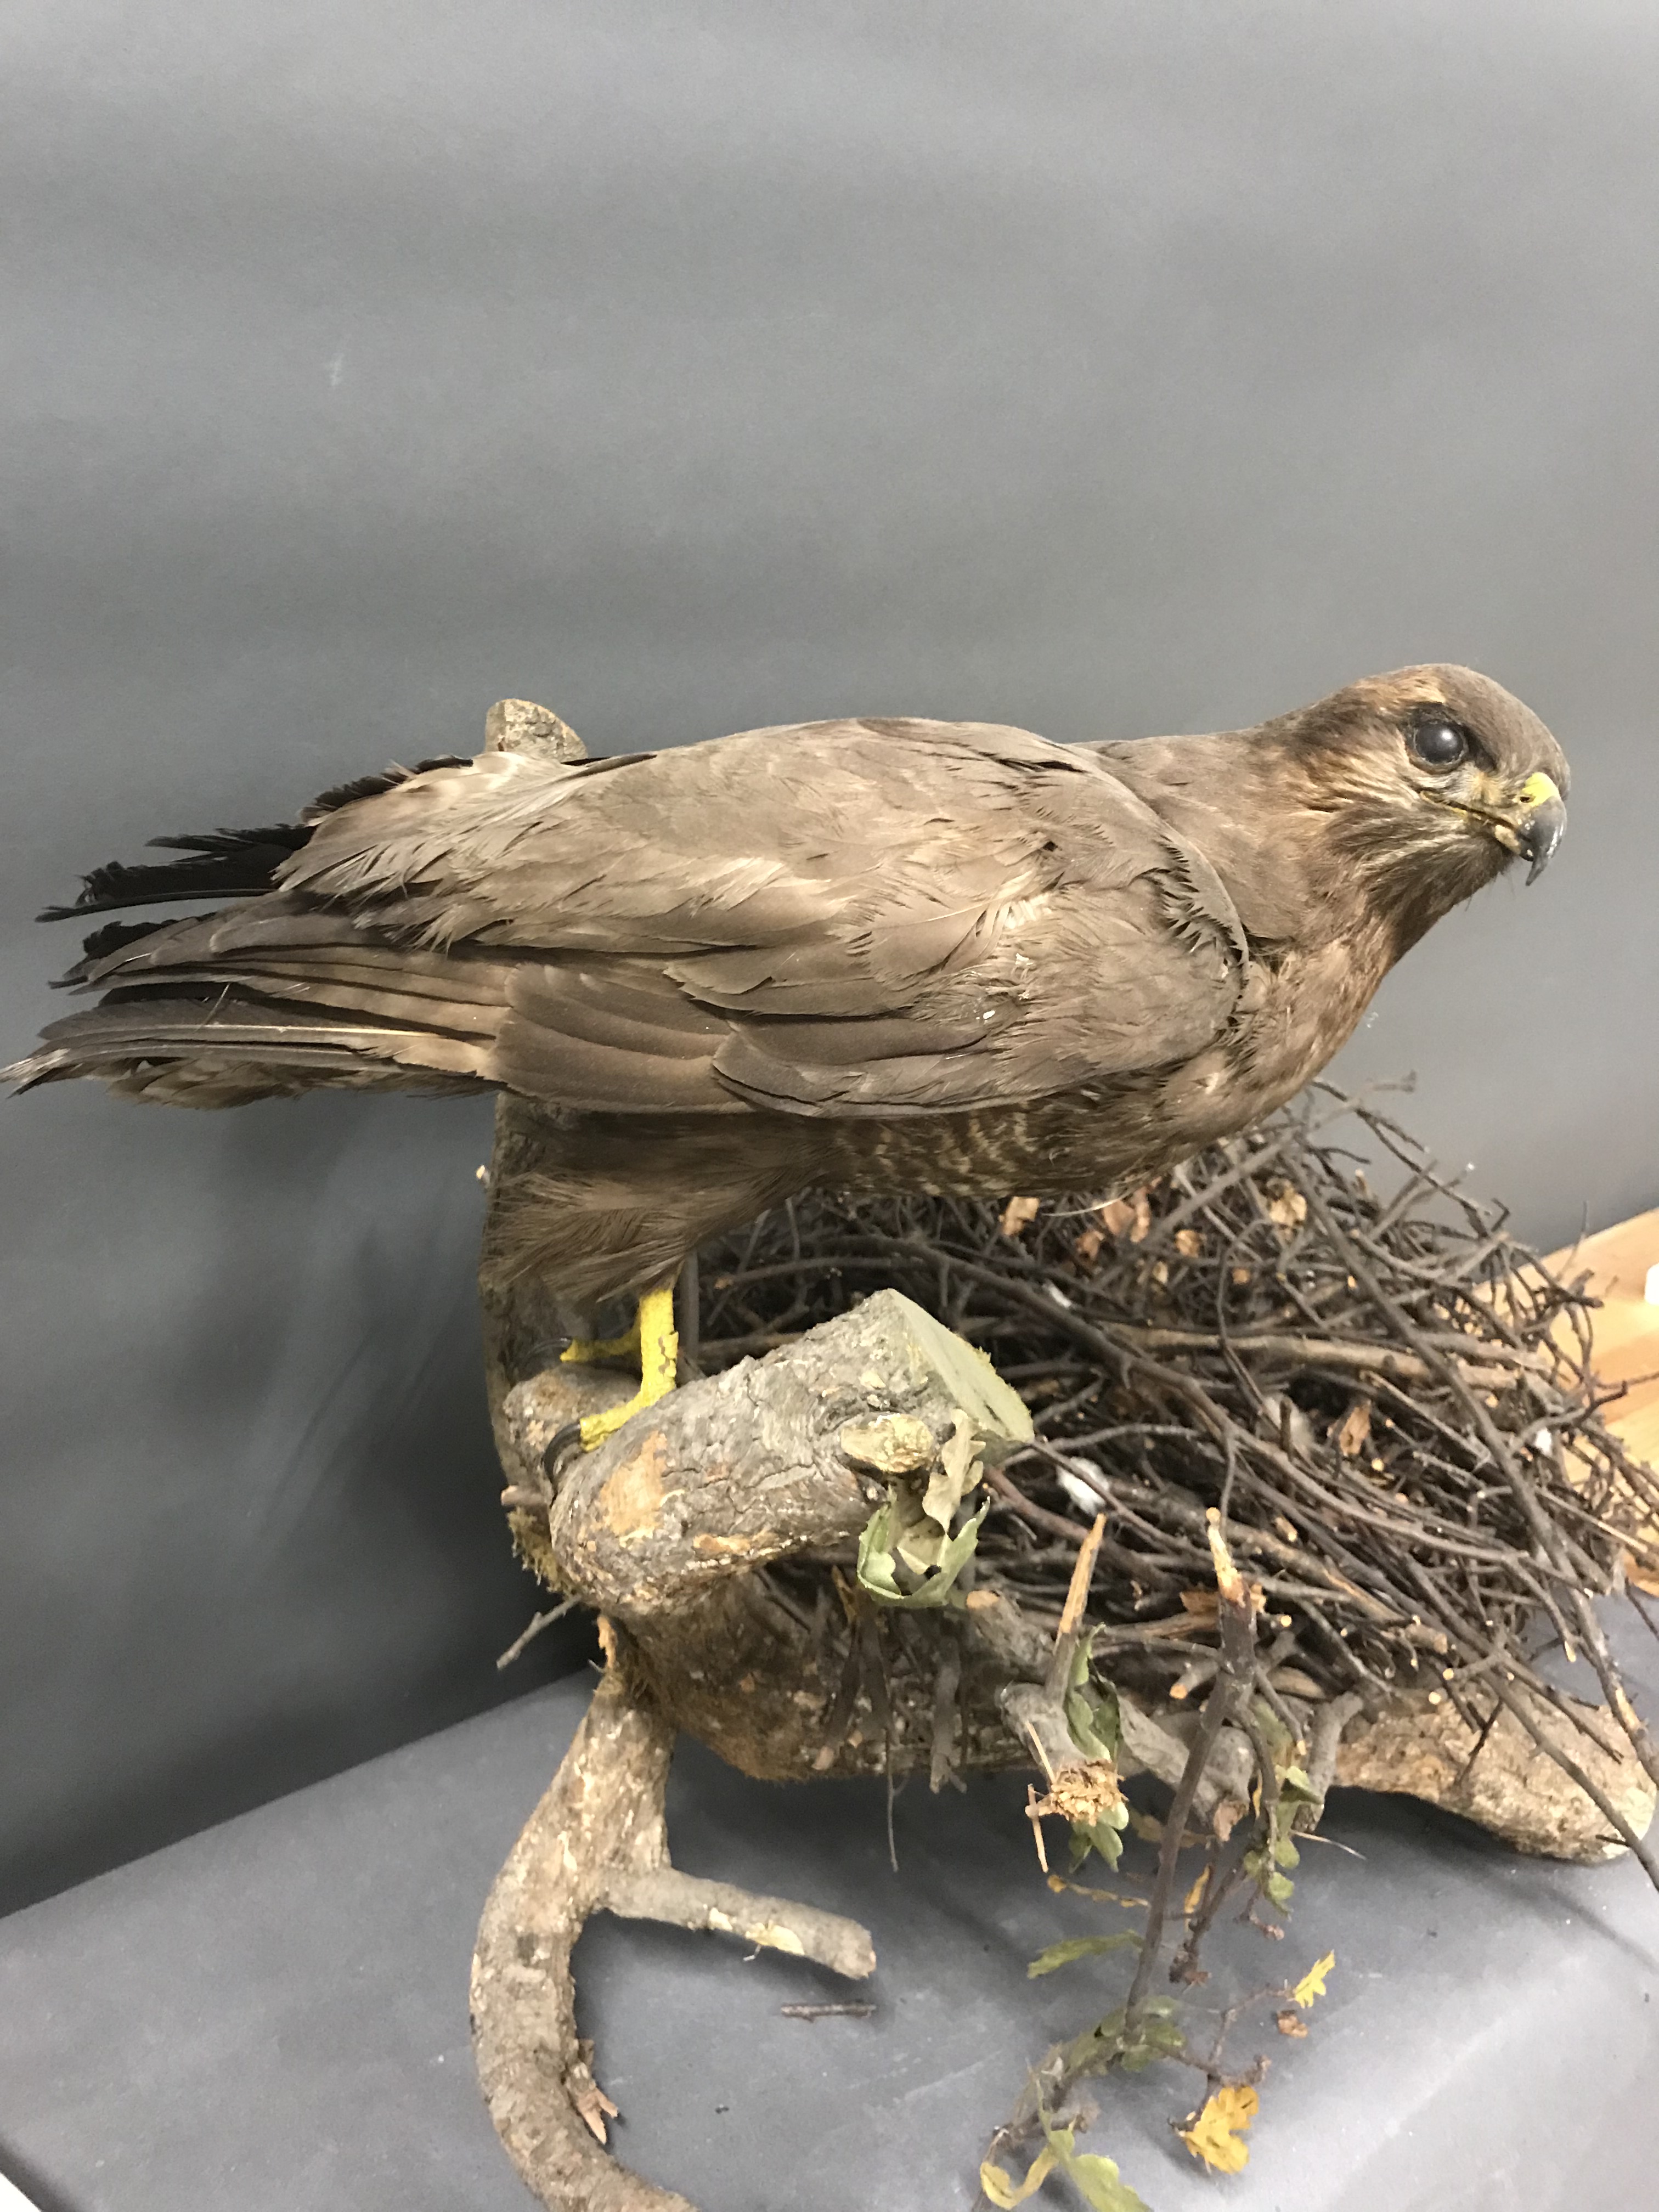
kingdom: Animalia
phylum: Chordata
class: Aves
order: Accipitriformes
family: Accipitridae
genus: Buteo
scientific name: Buteo buteo
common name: Common buzzard
